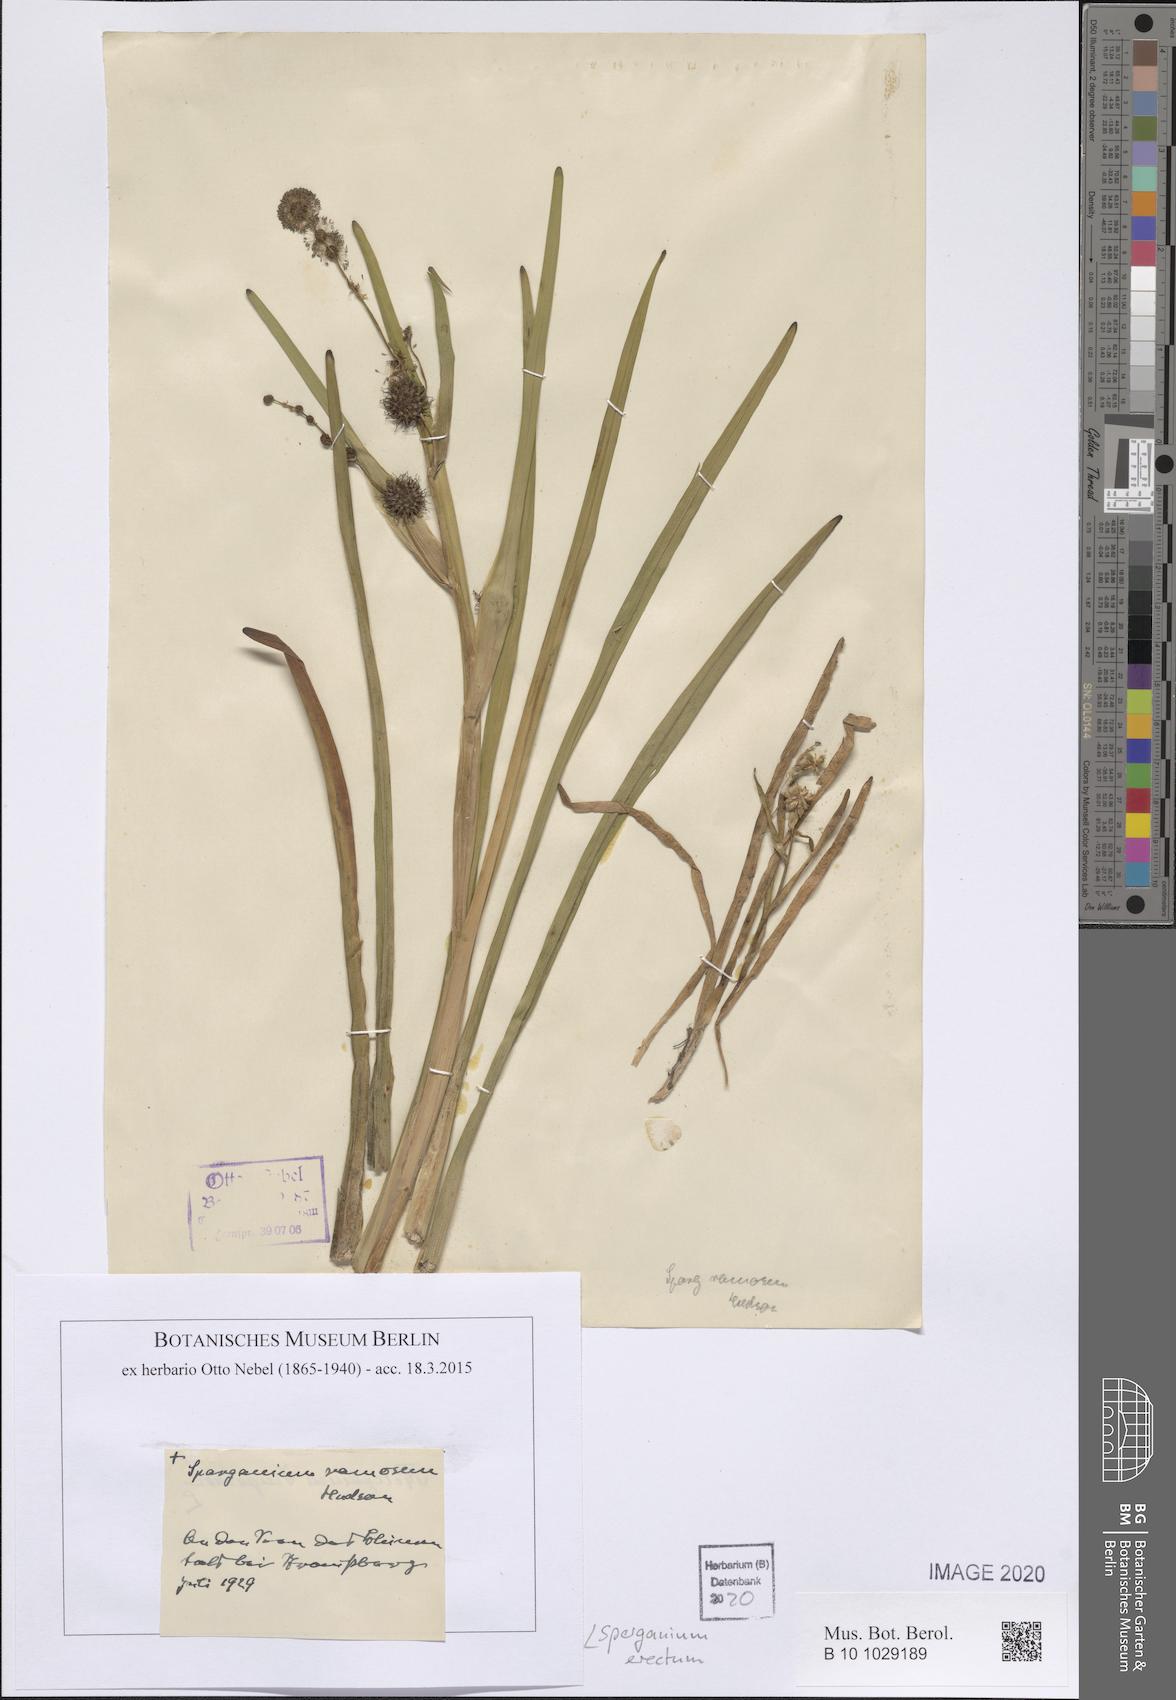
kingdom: Plantae
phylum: Tracheophyta
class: Liliopsida
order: Poales
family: Typhaceae
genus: Sparganium
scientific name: Sparganium erectum
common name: Branched bur-reed
